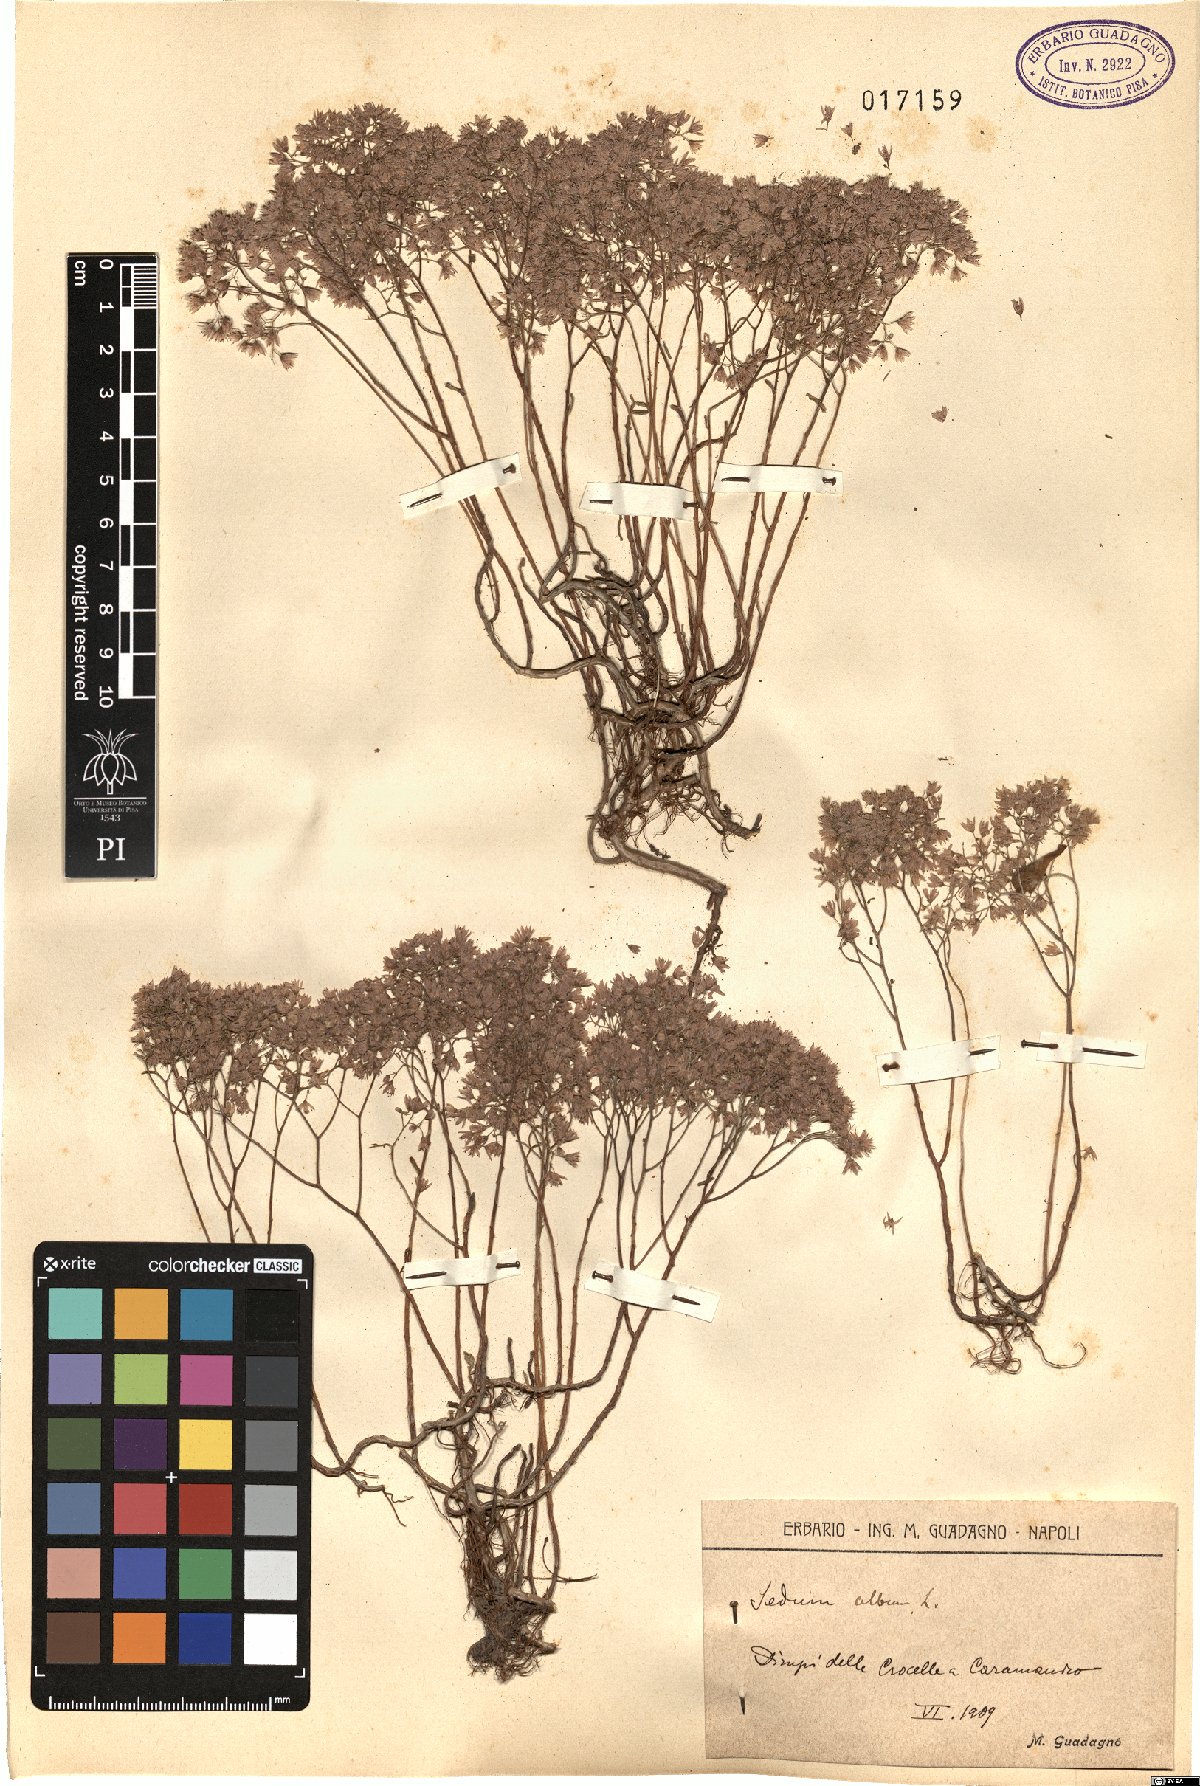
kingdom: Plantae
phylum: Tracheophyta
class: Magnoliopsida
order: Saxifragales
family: Crassulaceae
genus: Sedum
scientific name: Sedum album
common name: White stonecrop
